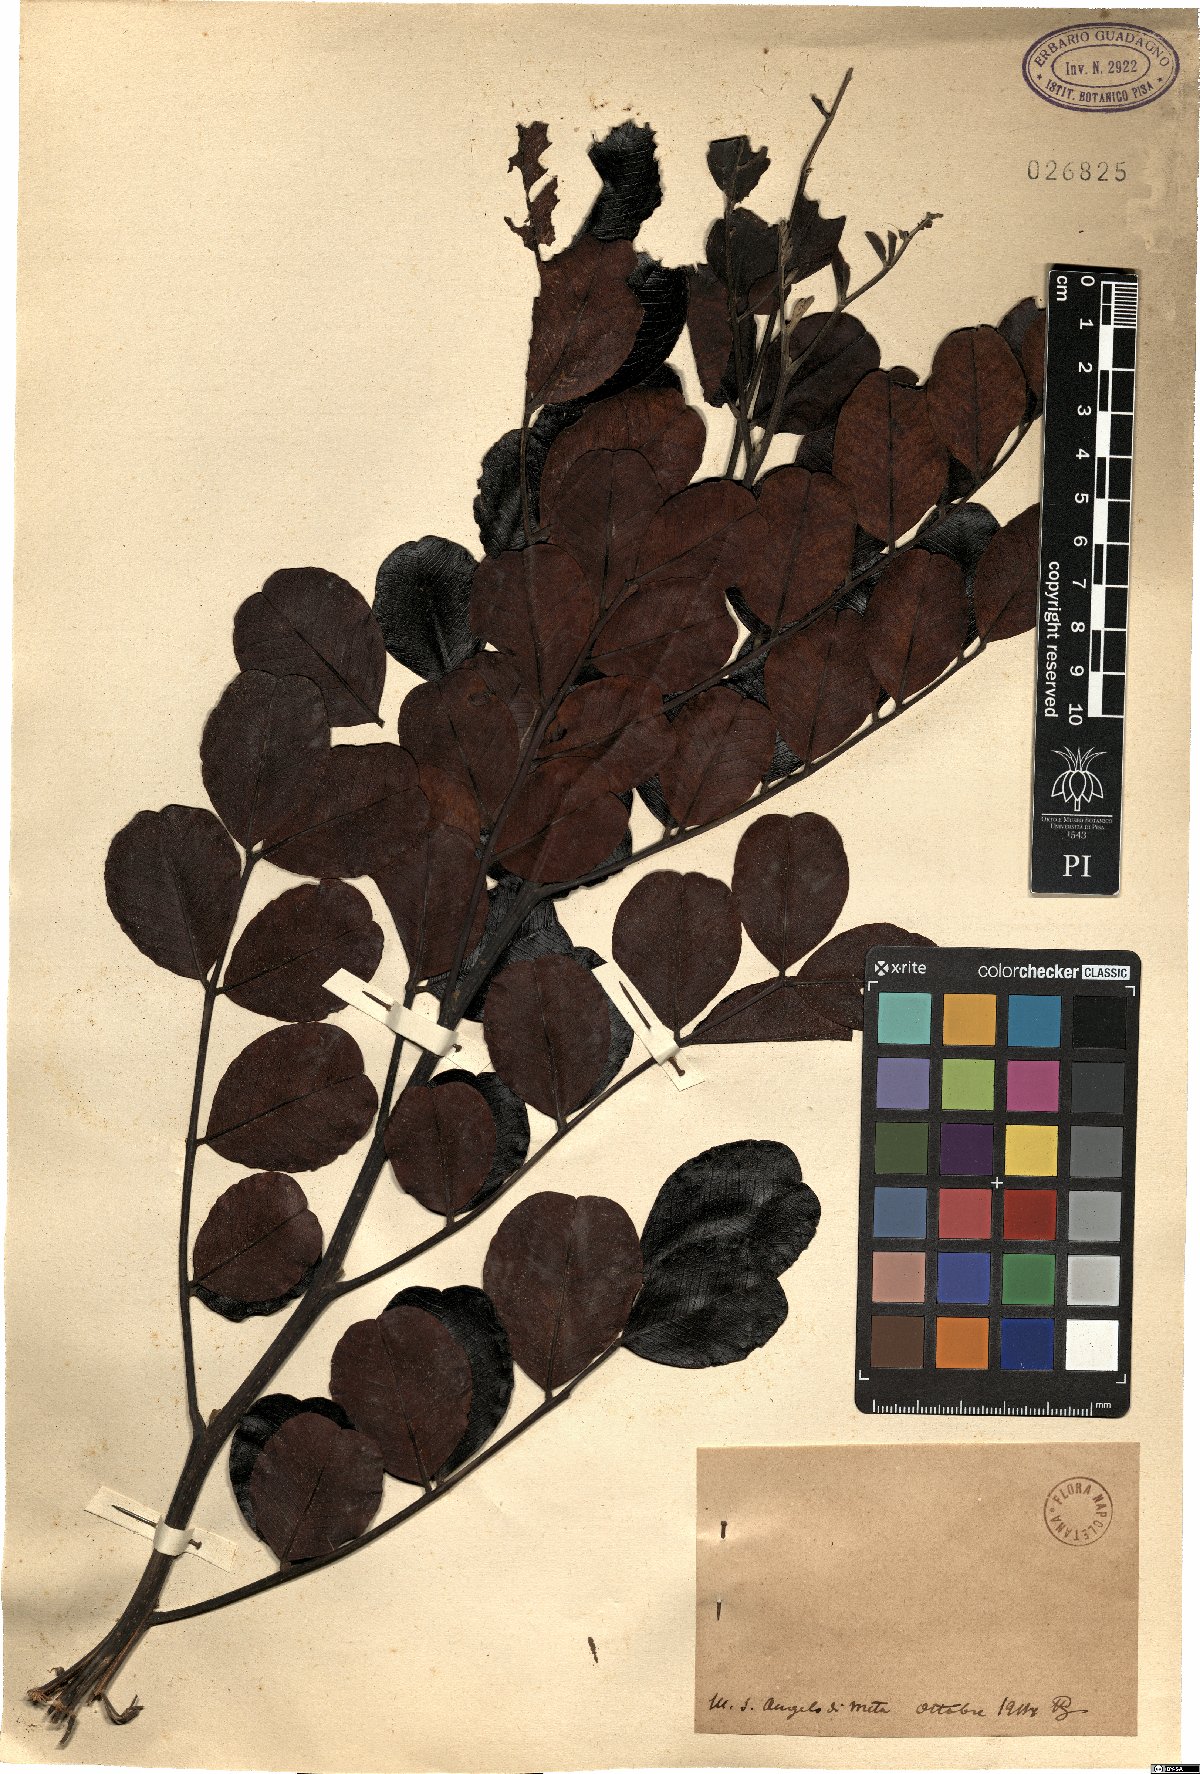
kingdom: Plantae
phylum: Tracheophyta
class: Magnoliopsida
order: Fabales
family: Fabaceae
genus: Ceratonia
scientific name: Ceratonia
